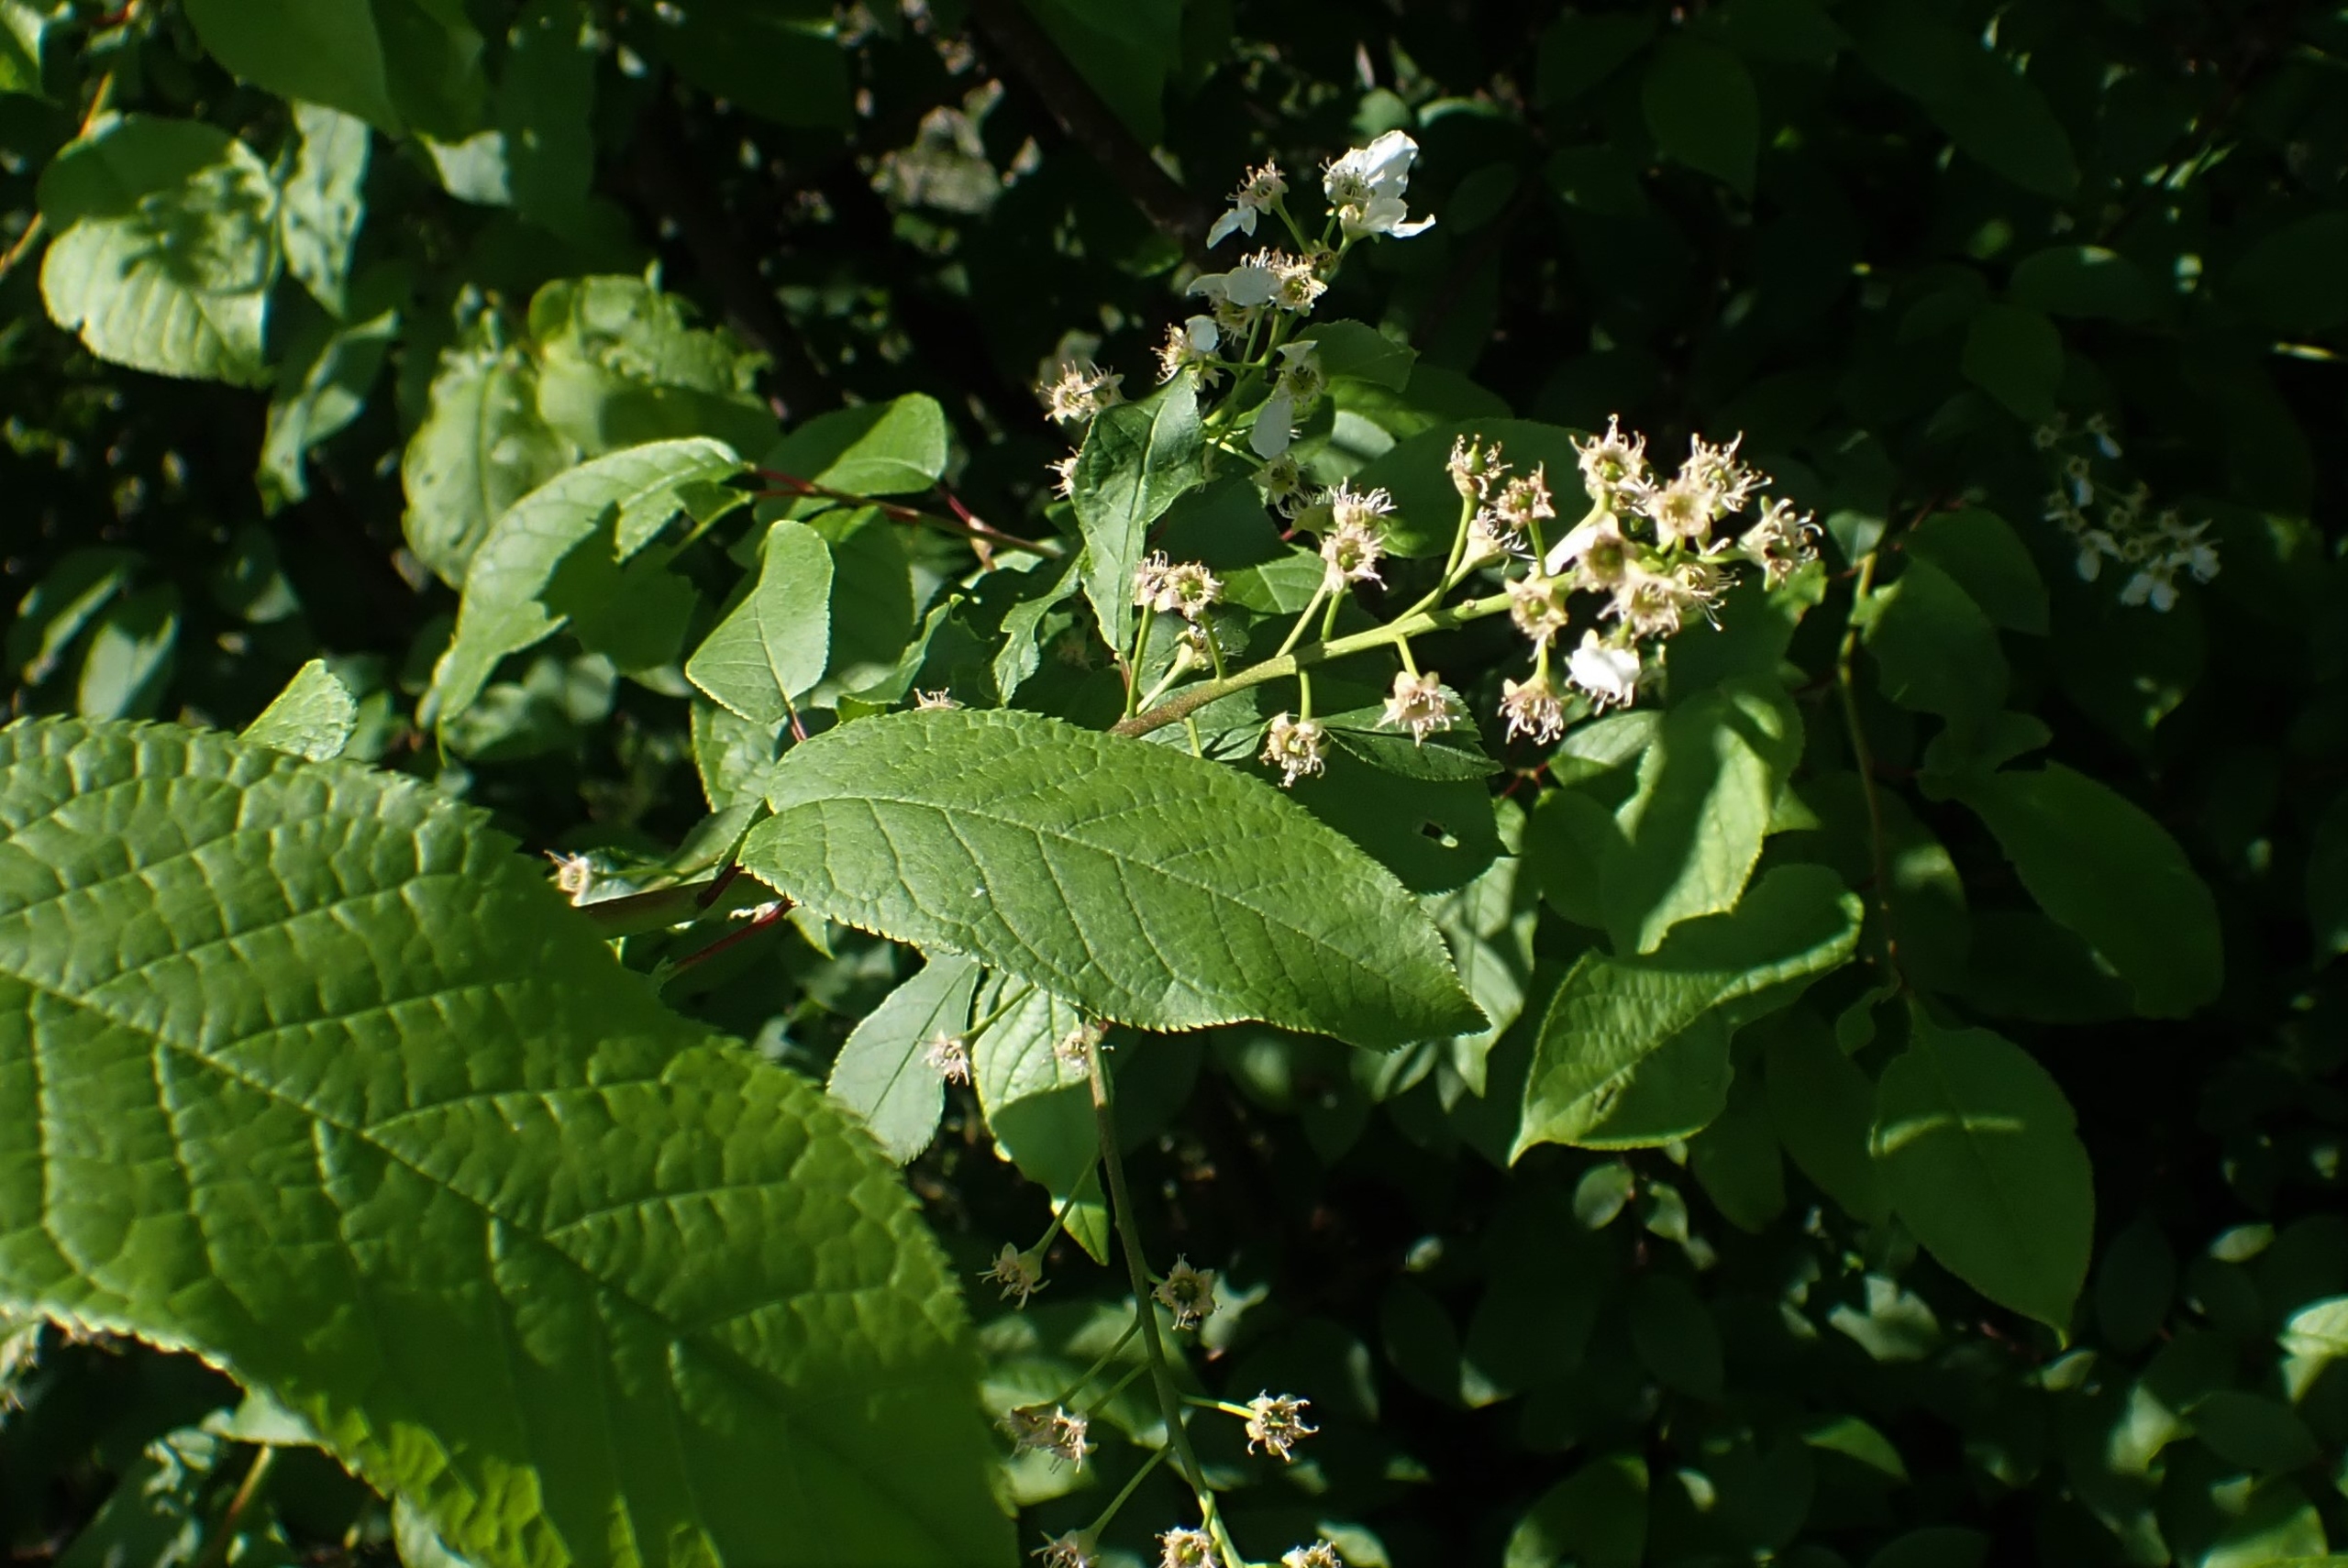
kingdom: Plantae
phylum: Tracheophyta
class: Magnoliopsida
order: Rosales
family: Rosaceae
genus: Prunus
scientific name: Prunus padus
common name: Almindelig hæg
